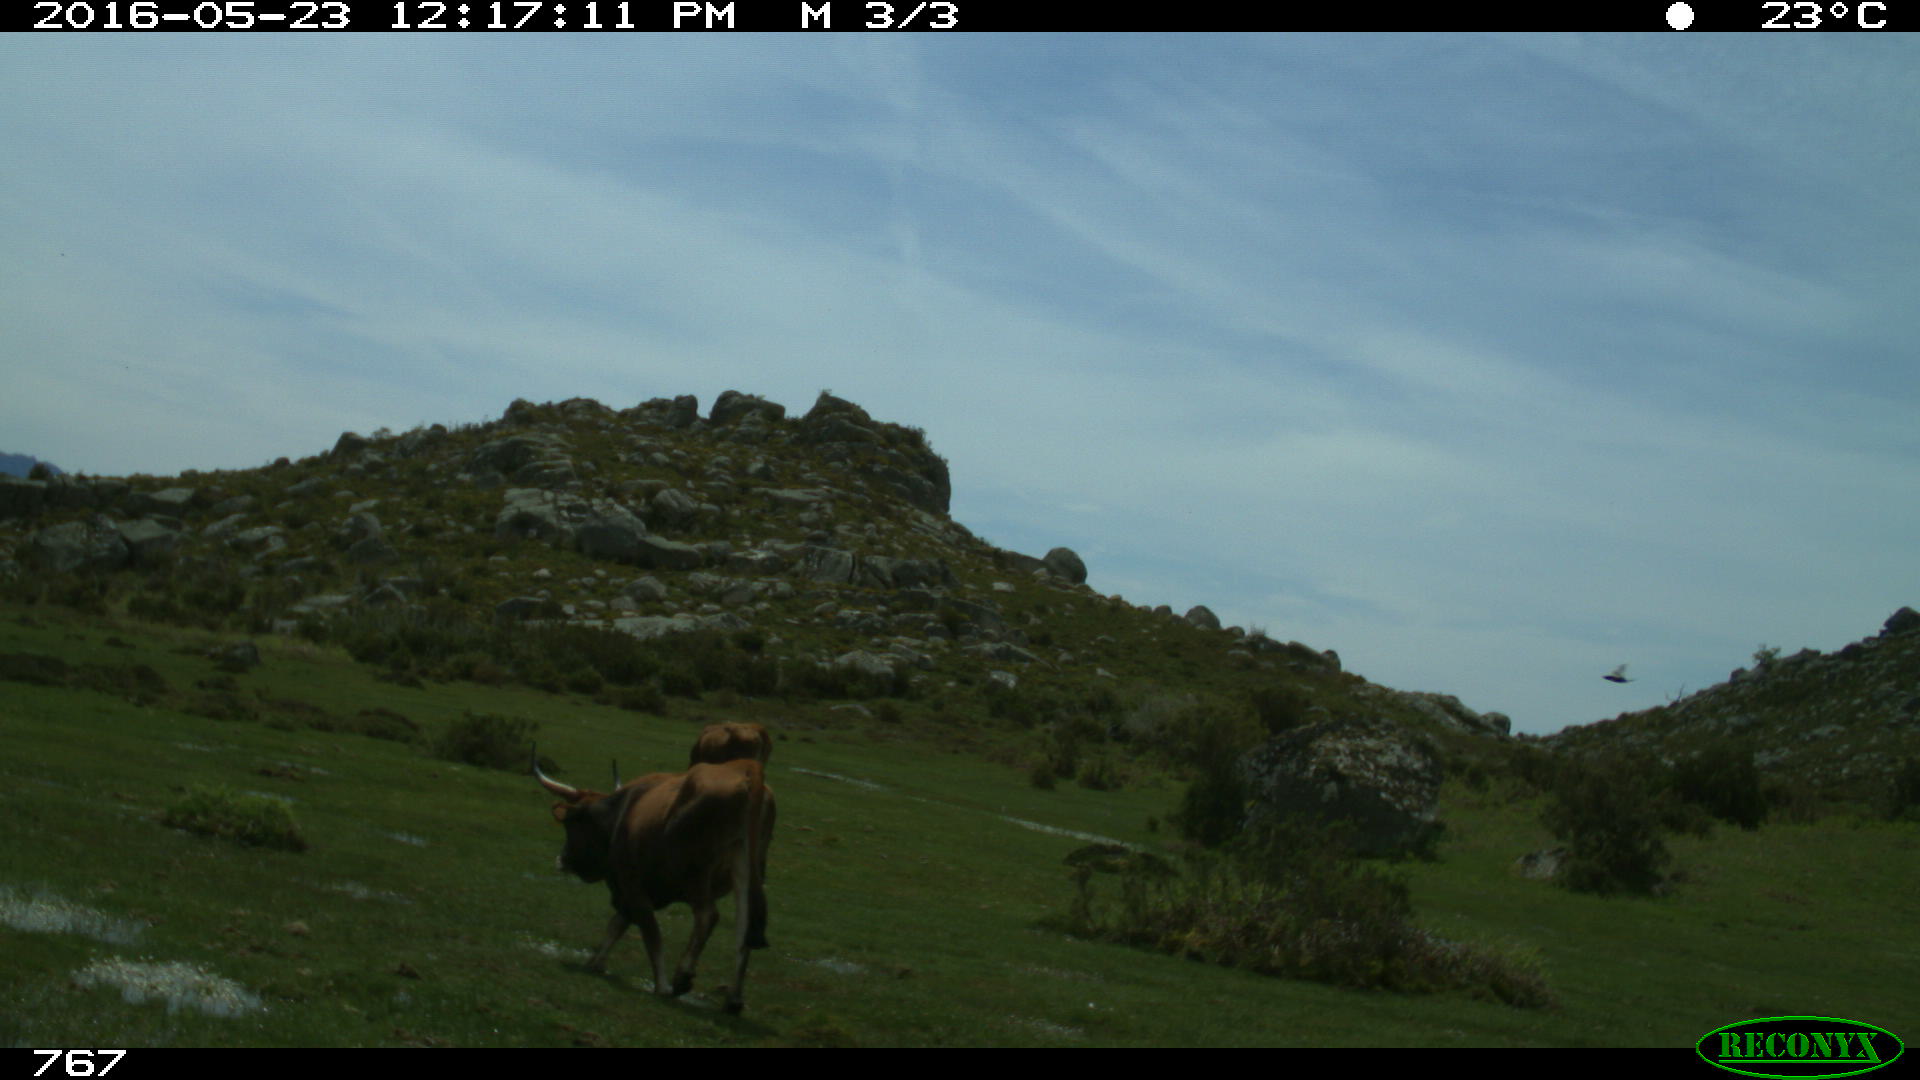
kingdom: Animalia
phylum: Chordata
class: Mammalia
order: Artiodactyla
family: Bovidae
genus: Bos
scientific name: Bos taurus
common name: Domesticated cattle
